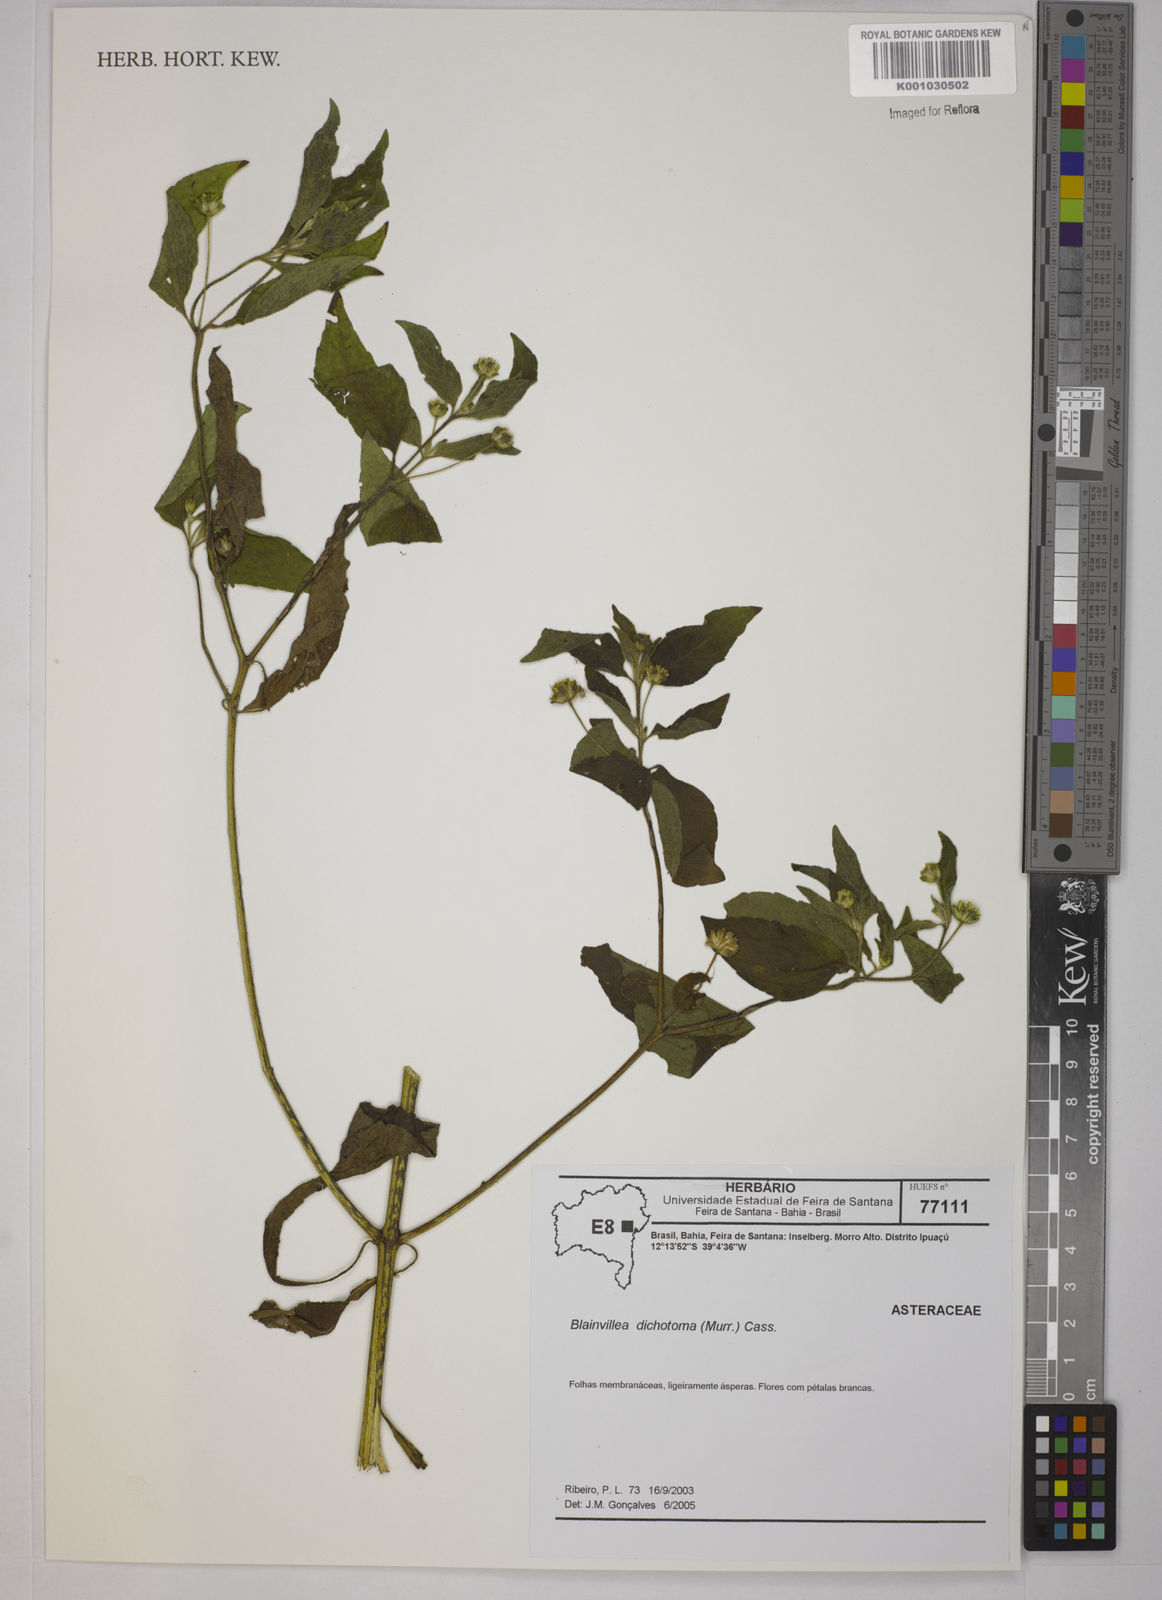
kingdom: Plantae
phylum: Tracheophyta
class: Magnoliopsida
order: Asterales
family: Asteraceae
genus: Blainvillea
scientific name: Blainvillea dichotoma
